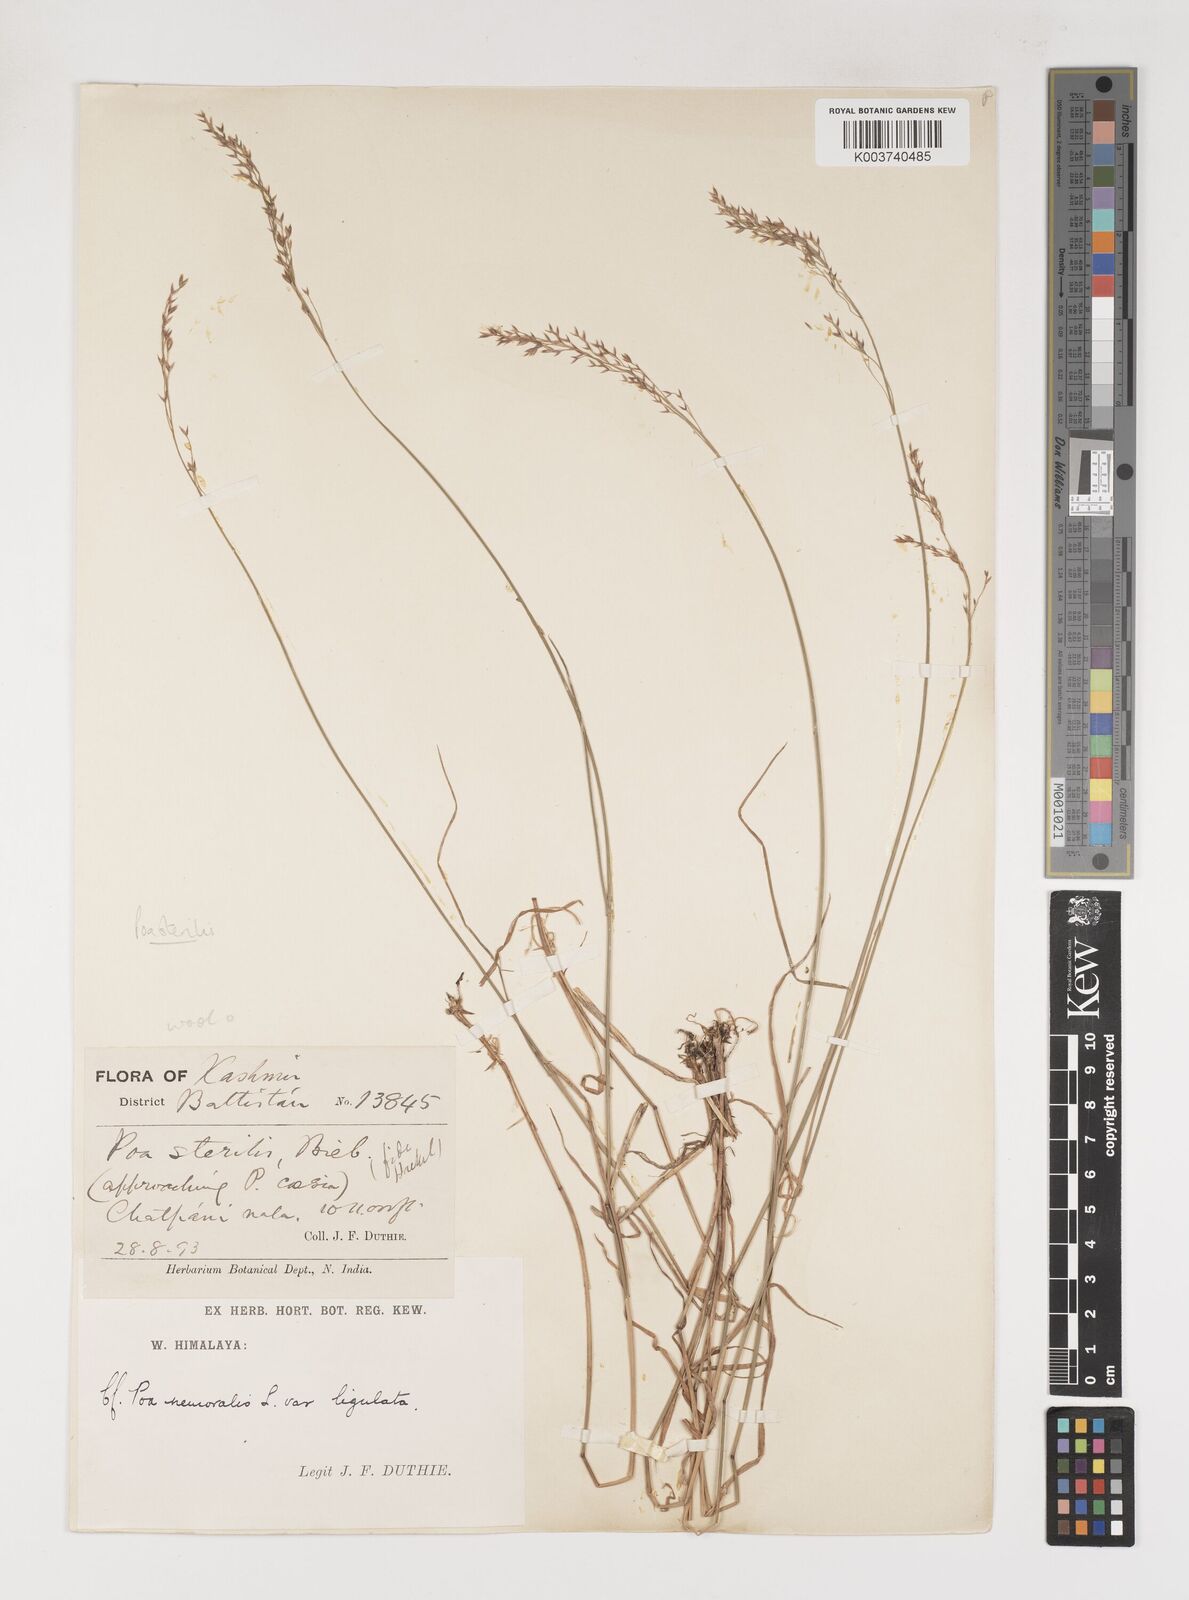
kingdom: Plantae
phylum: Tracheophyta
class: Liliopsida
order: Poales
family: Poaceae
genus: Poa
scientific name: Poa sterilis
